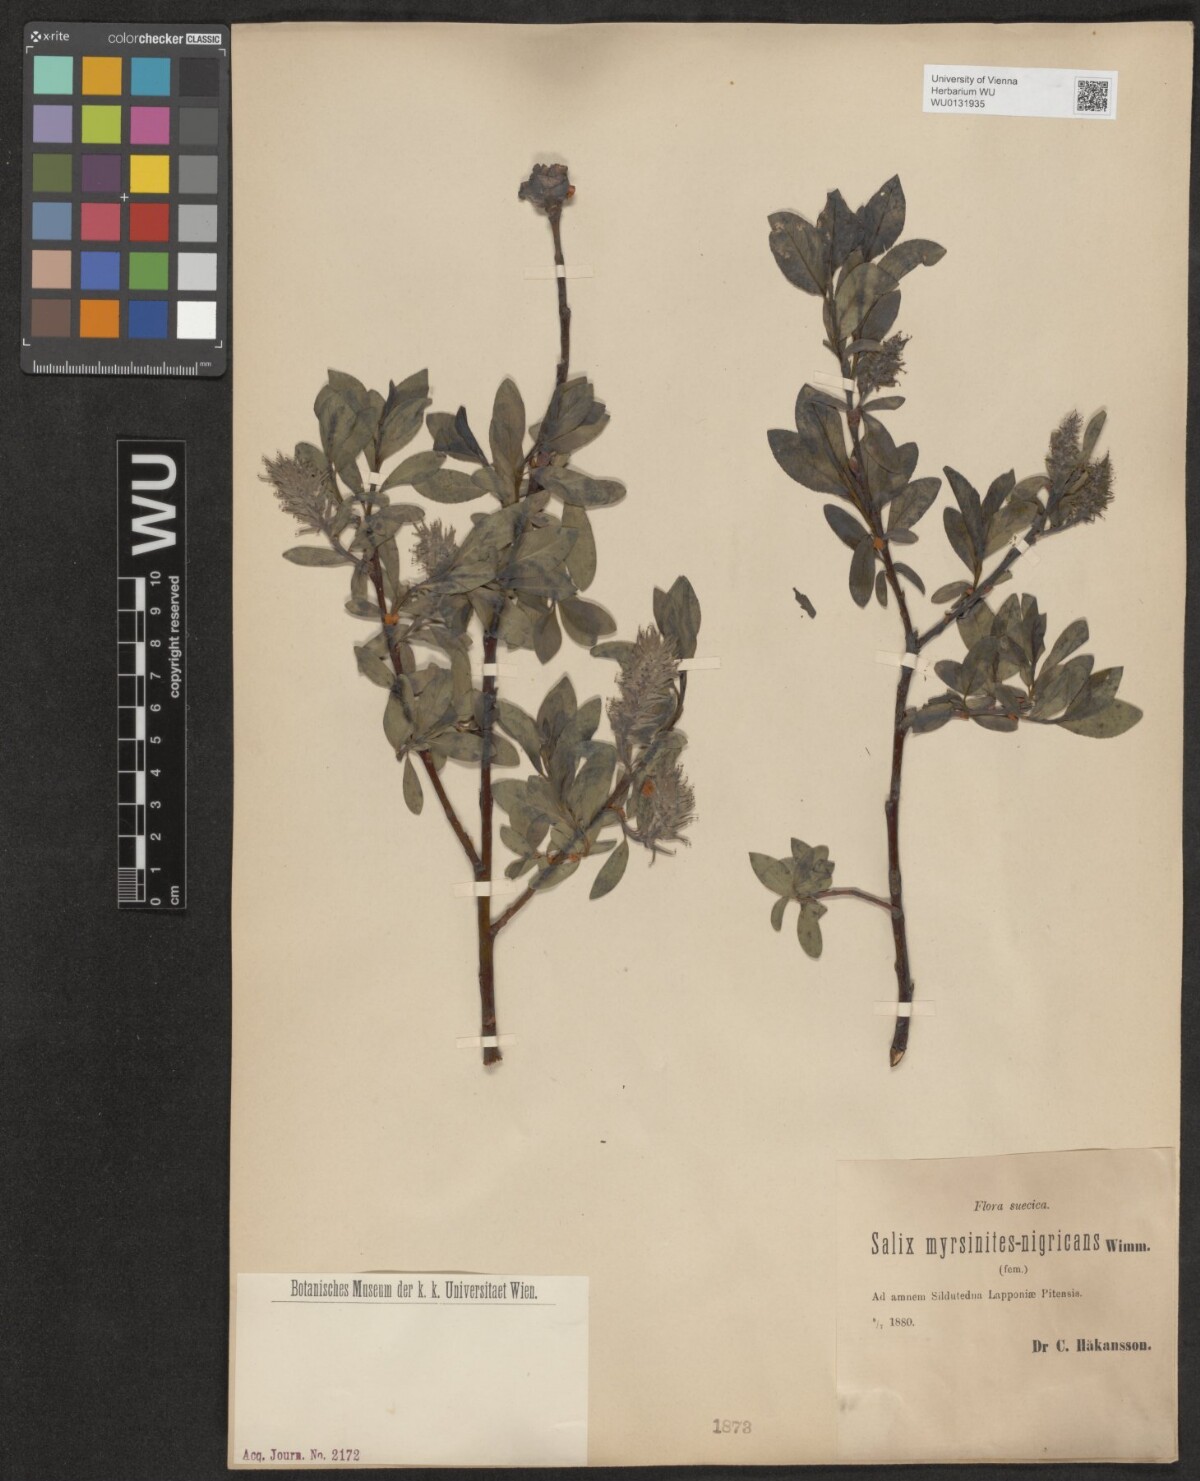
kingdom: Plantae
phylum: Tracheophyta
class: Magnoliopsida
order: Malpighiales
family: Salicaceae
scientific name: Salicaceae
